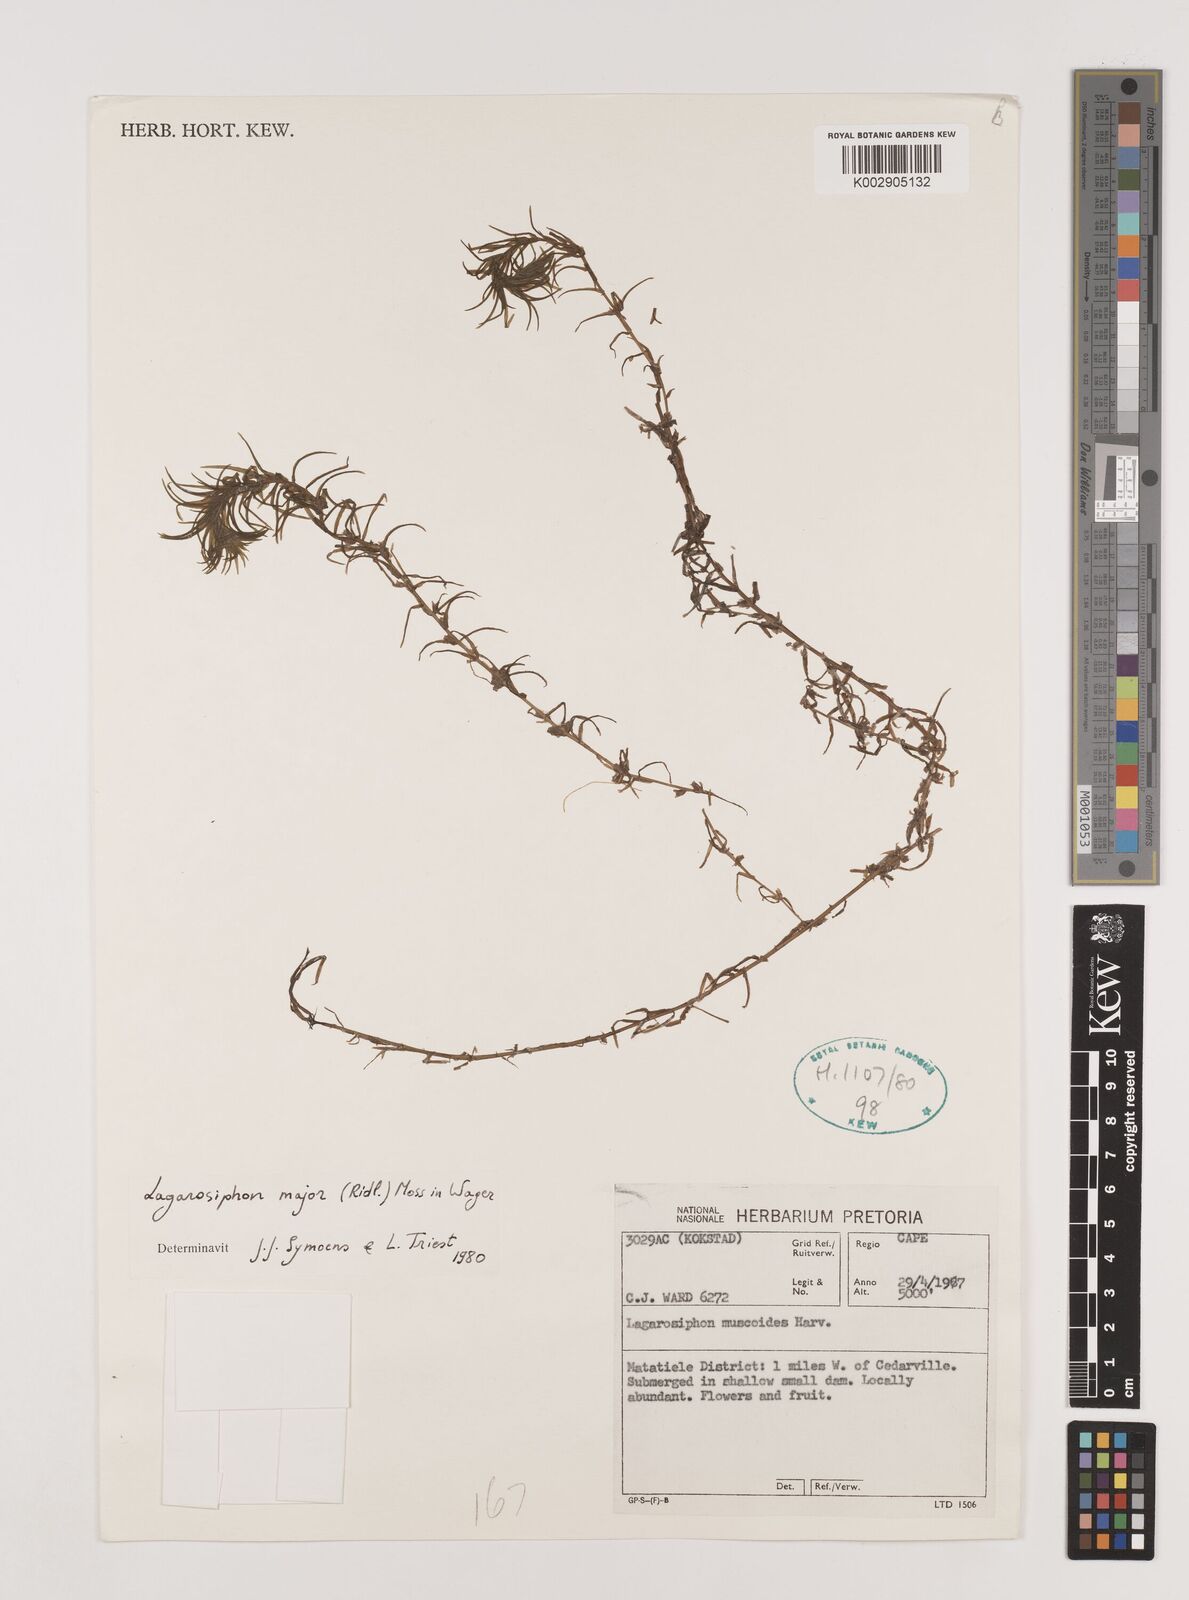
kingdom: Plantae
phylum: Tracheophyta
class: Liliopsida
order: Alismatales
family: Hydrocharitaceae
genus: Lagarosiphon
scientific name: Lagarosiphon major
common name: Curly waterweed
